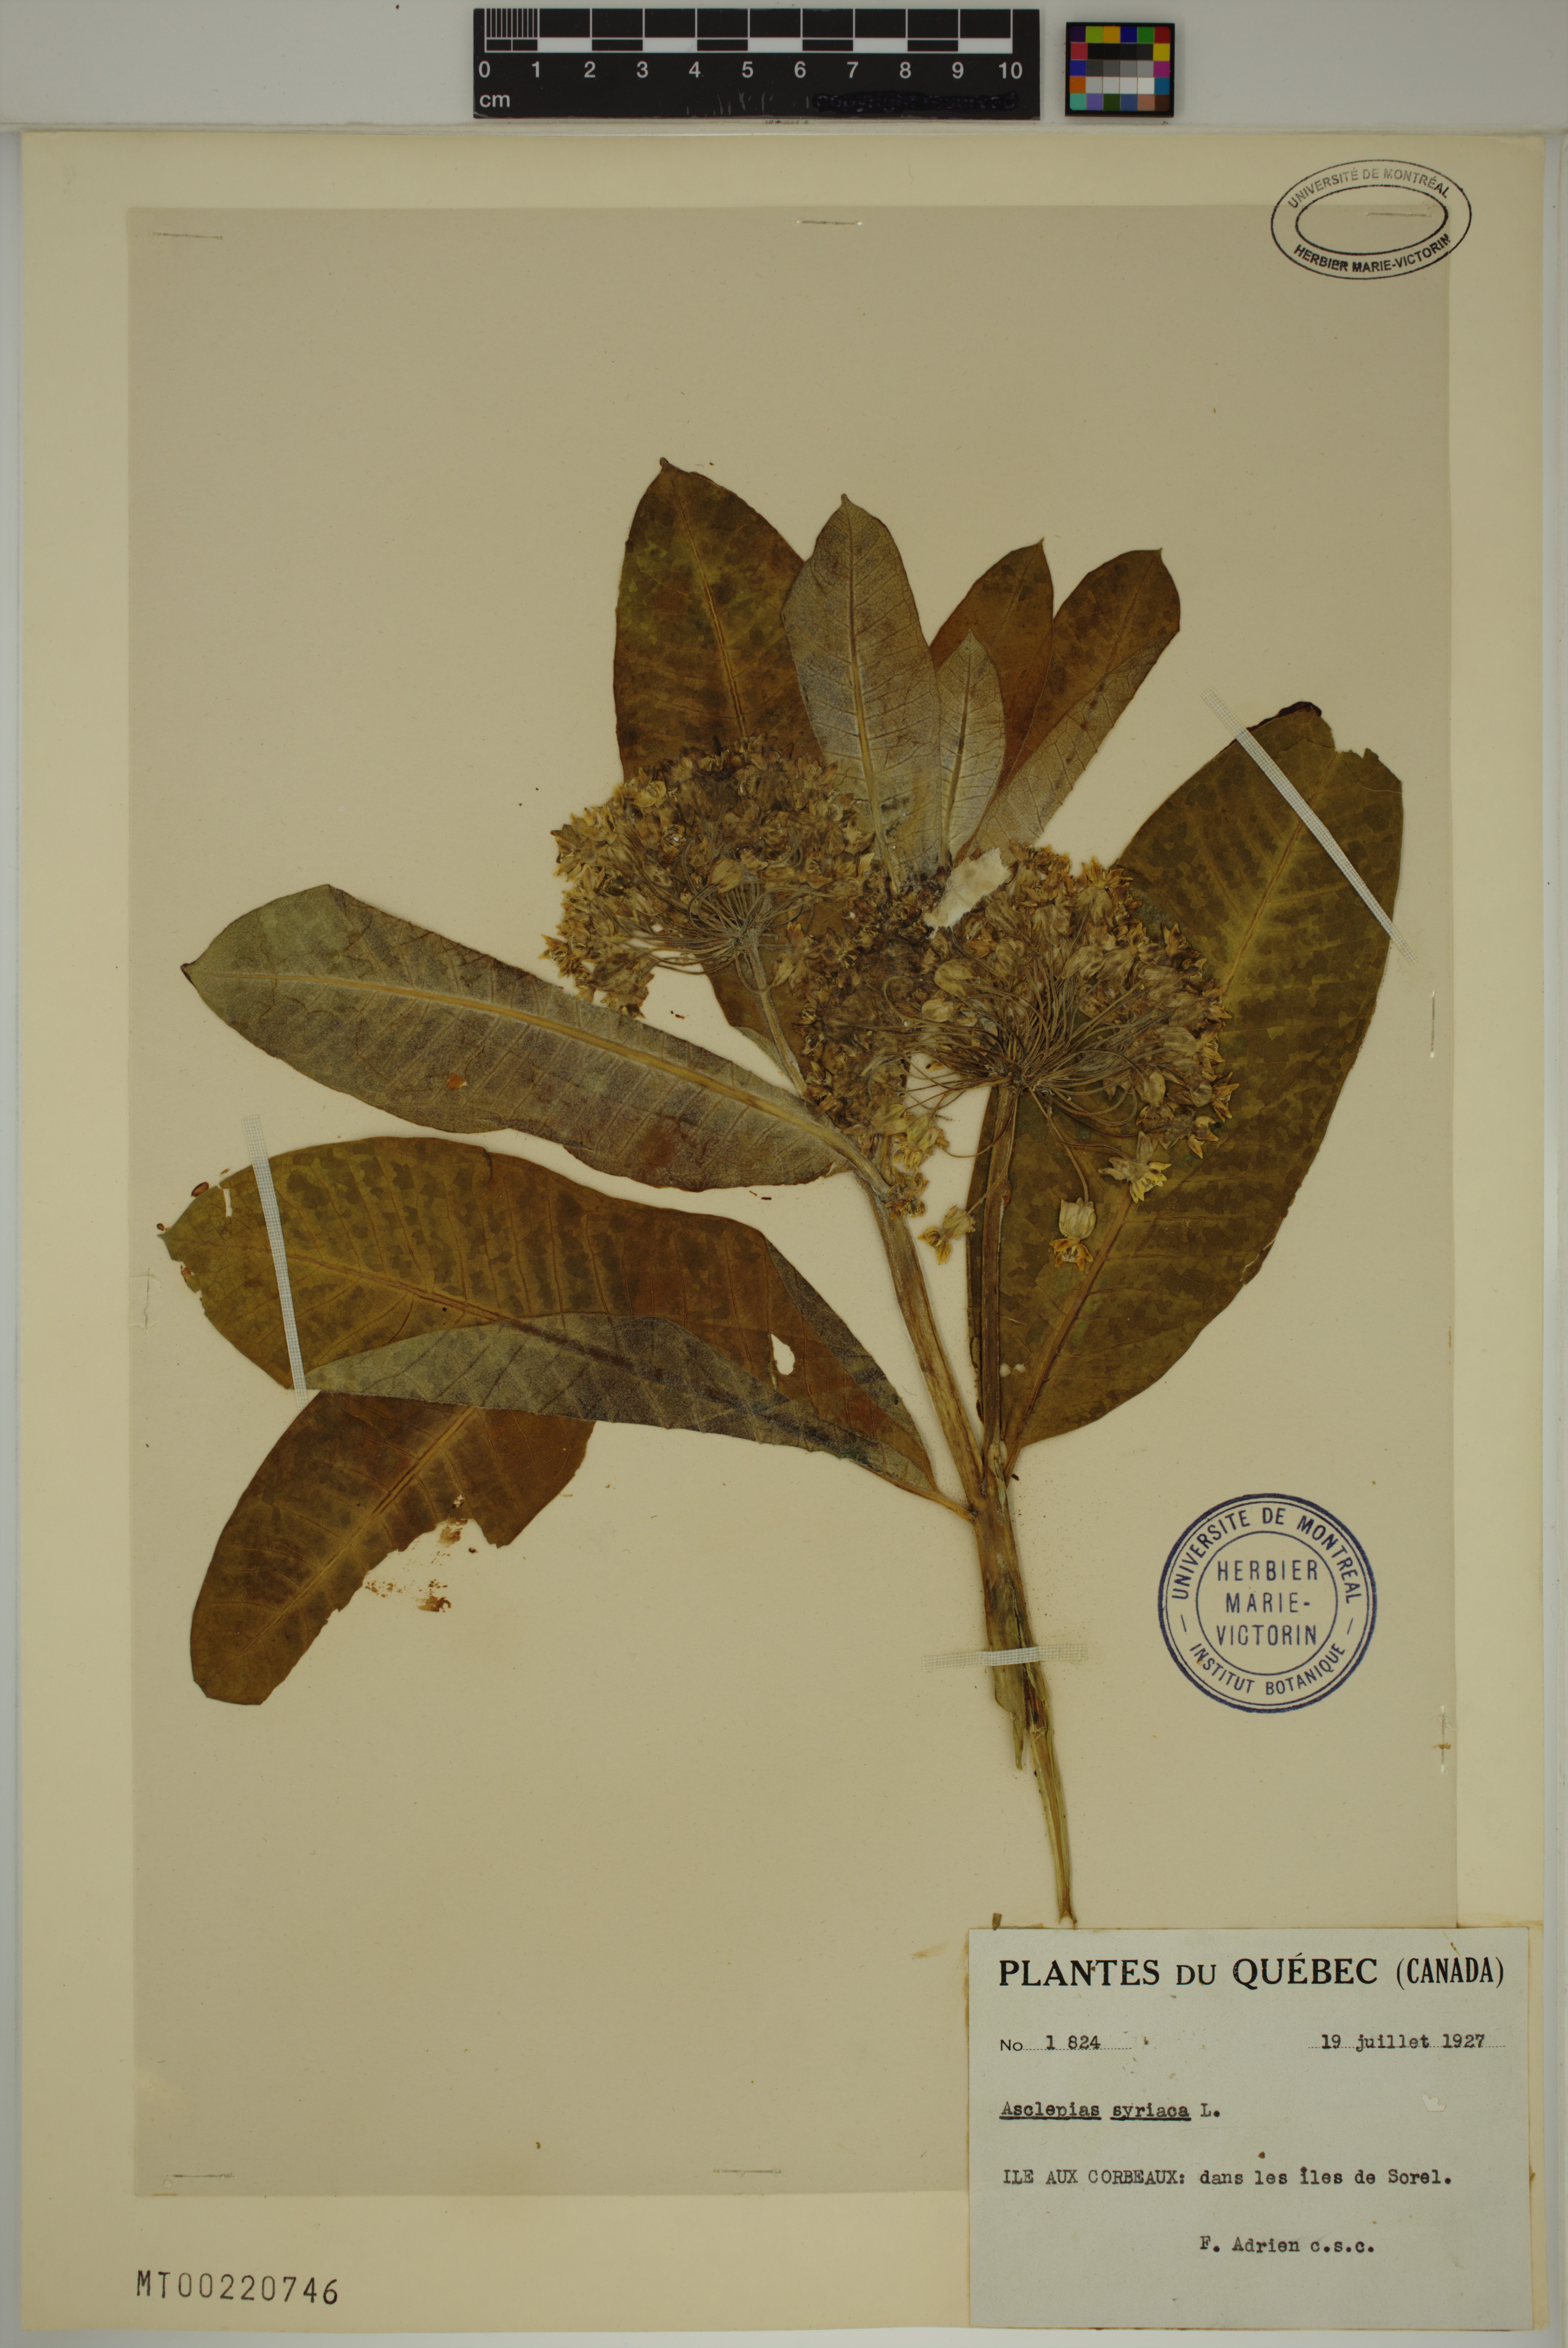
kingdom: Plantae
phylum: Tracheophyta
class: Magnoliopsida
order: Gentianales
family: Apocynaceae
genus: Asclepias
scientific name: Asclepias syriaca
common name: Common milkweed
